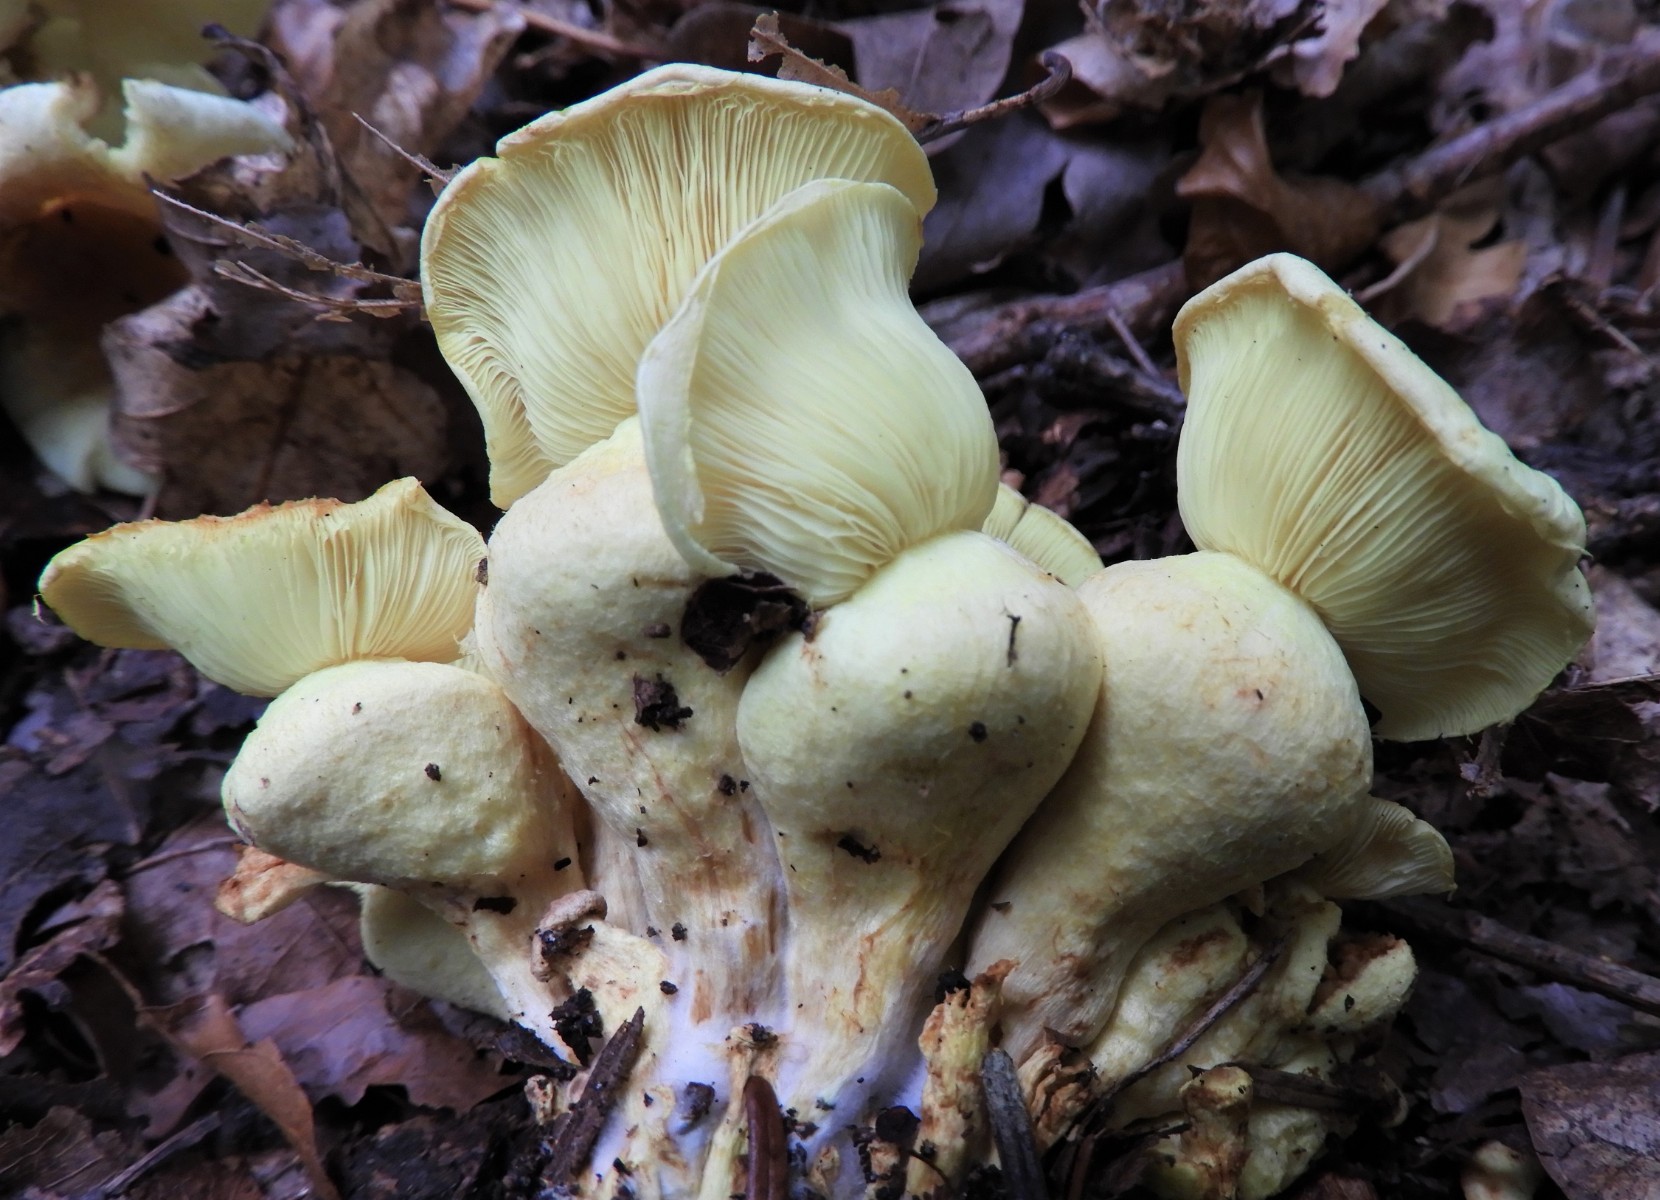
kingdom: Fungi
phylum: Basidiomycota
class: Agaricomycetes
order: Agaricales
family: Strophariaceae
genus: Hypholoma
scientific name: Hypholoma fasciculare
